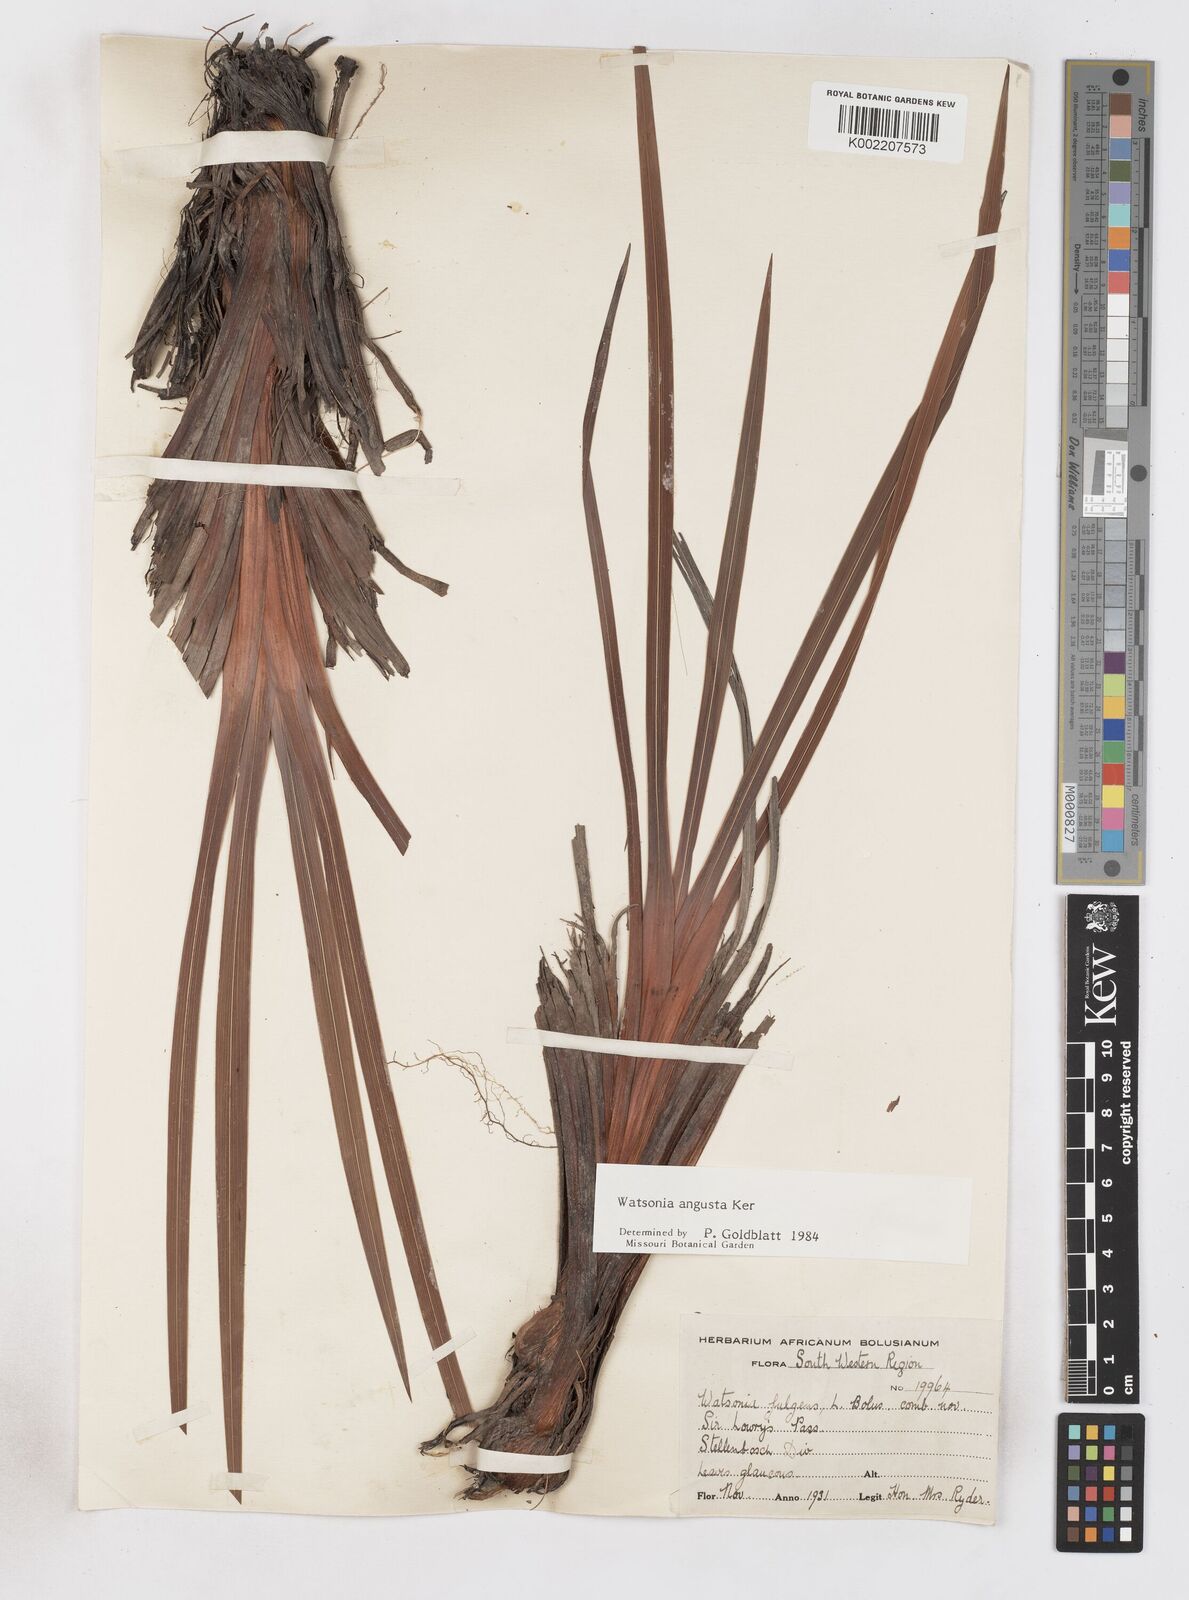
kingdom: Plantae
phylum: Tracheophyta
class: Liliopsida
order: Asparagales
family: Iridaceae
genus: Watsonia
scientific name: Watsonia
